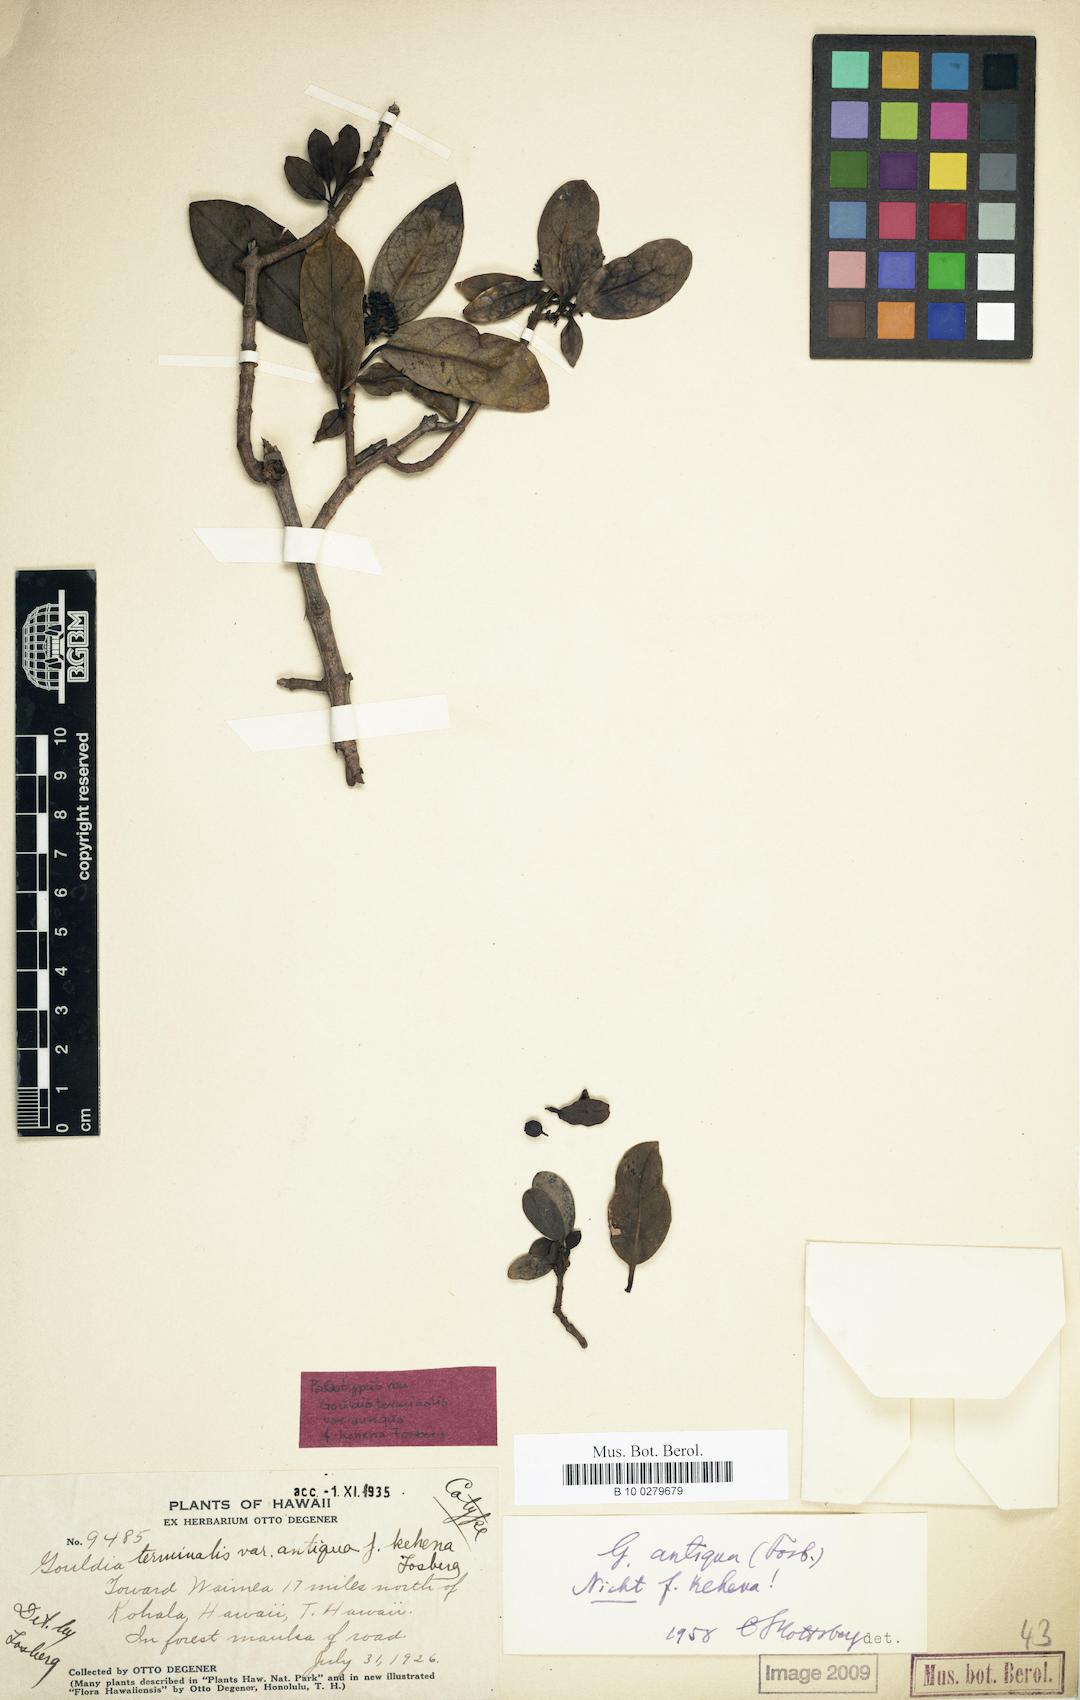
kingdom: Plantae
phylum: Tracheophyta
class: Magnoliopsida
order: Gentianales
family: Rubiaceae
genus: Kadua
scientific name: Kadua affinis
